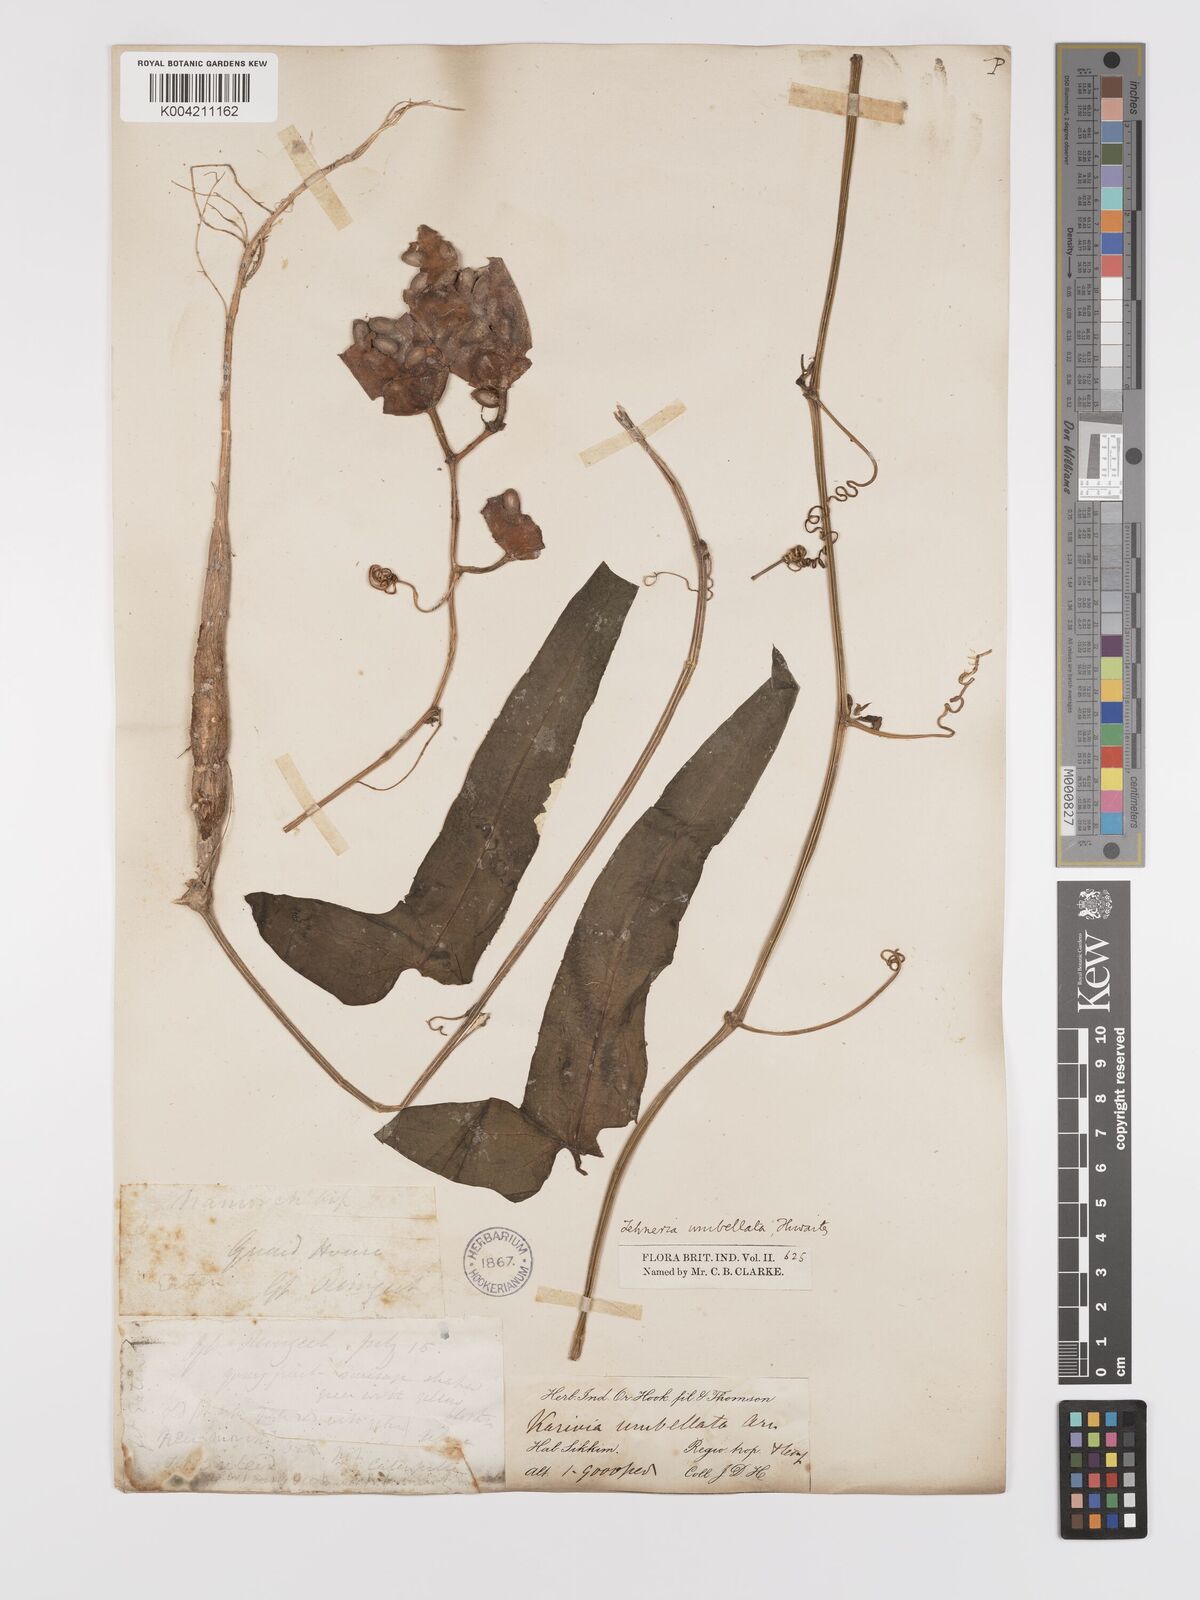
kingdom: Plantae
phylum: Tracheophyta
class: Magnoliopsida
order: Cucurbitales
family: Cucurbitaceae
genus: Solena
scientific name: Solena amplexicaulis
